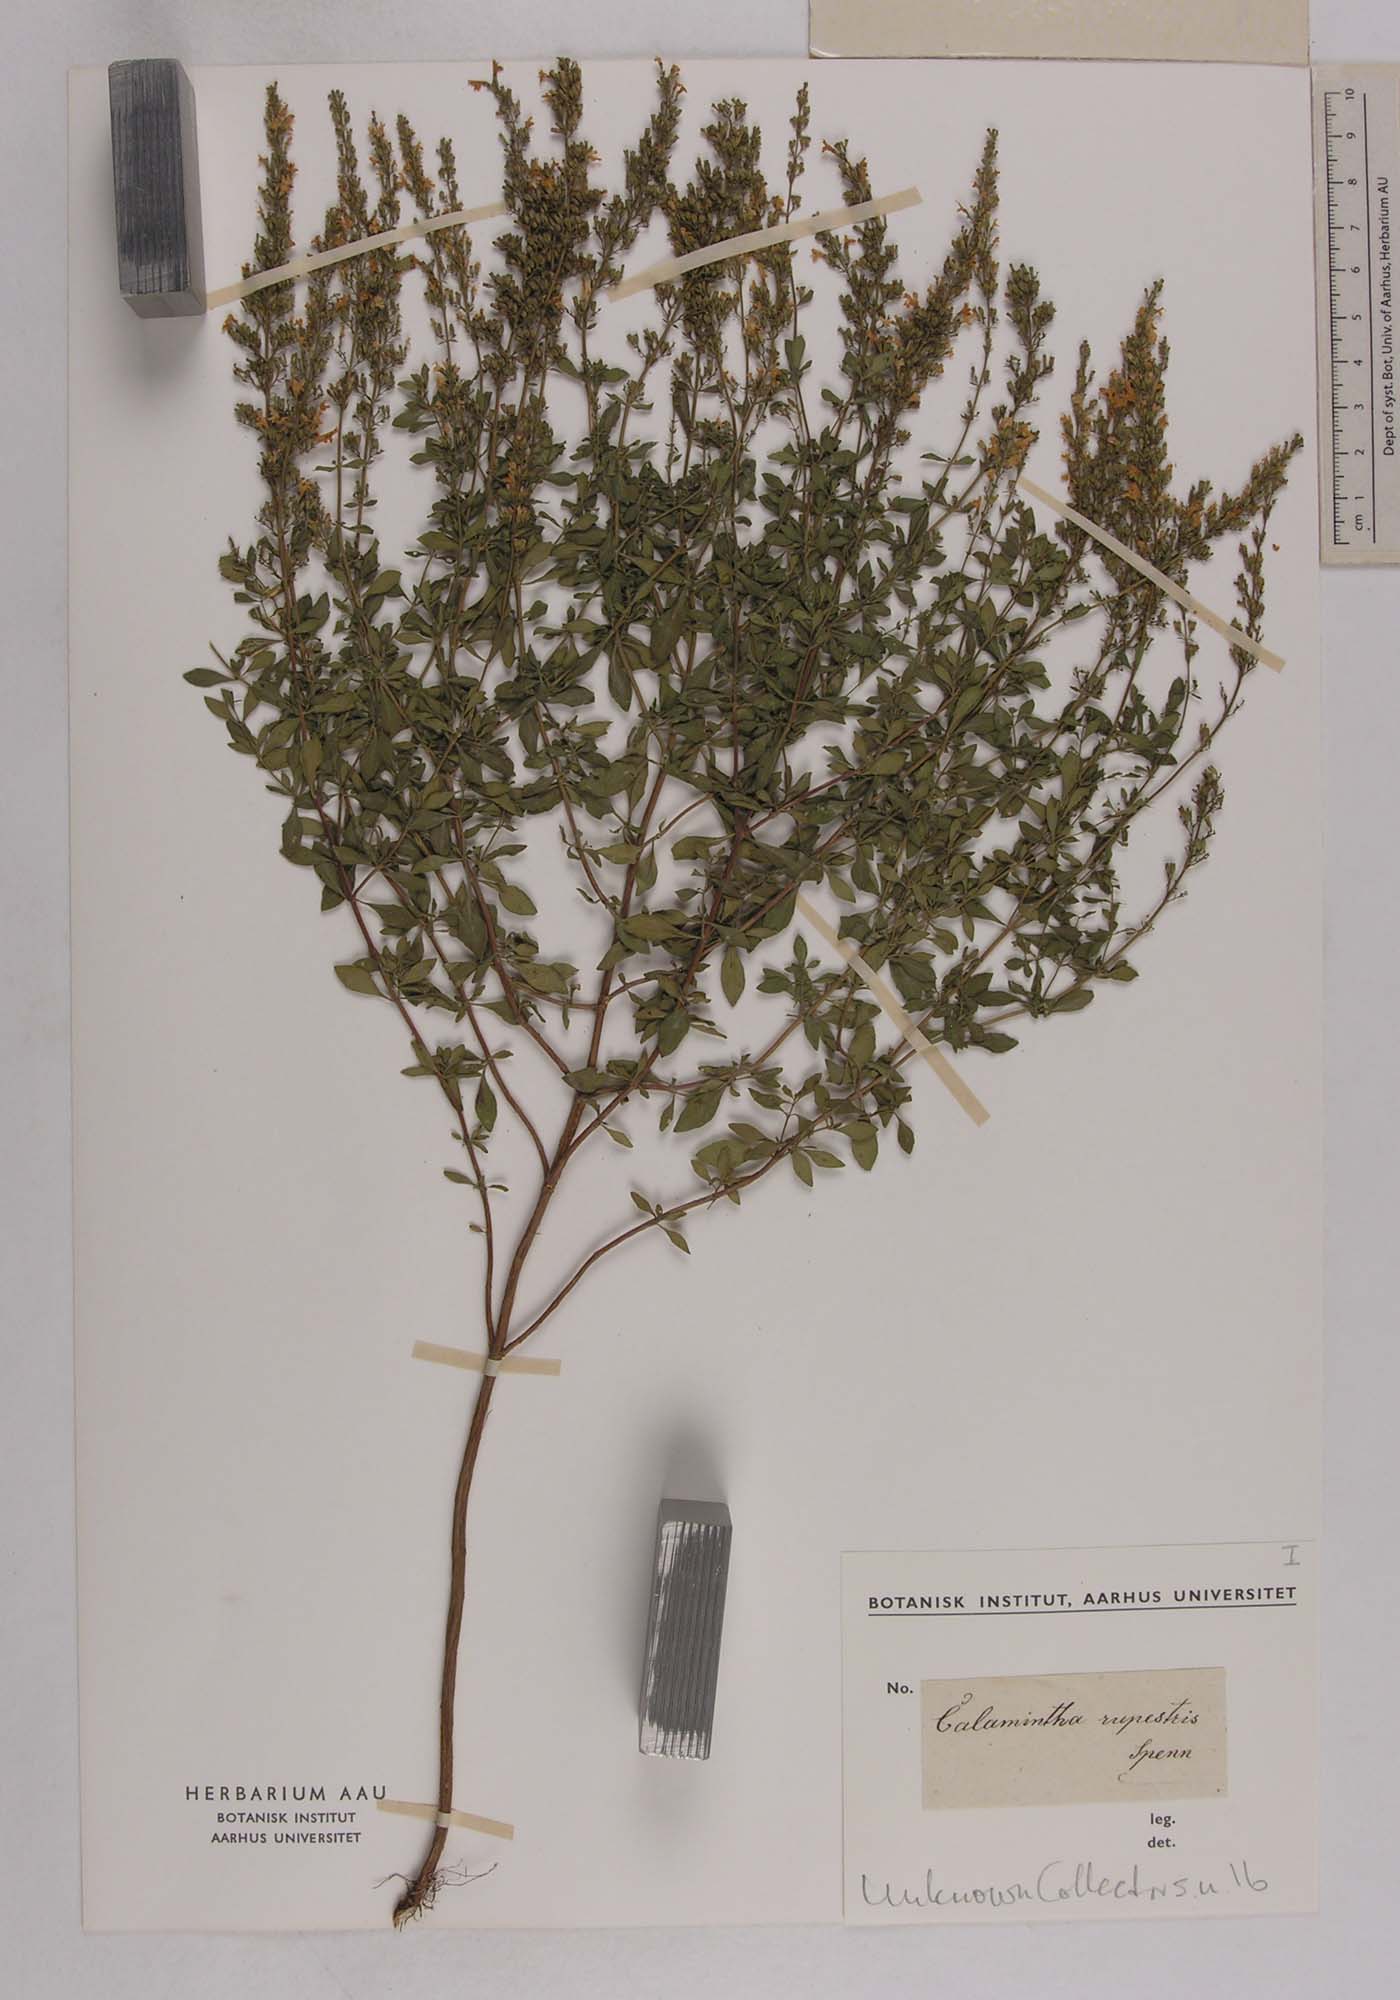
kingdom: Plantae
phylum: Tracheophyta
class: Magnoliopsida
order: Lamiales
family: Lamiaceae
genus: Clinopodium
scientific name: Clinopodium album
